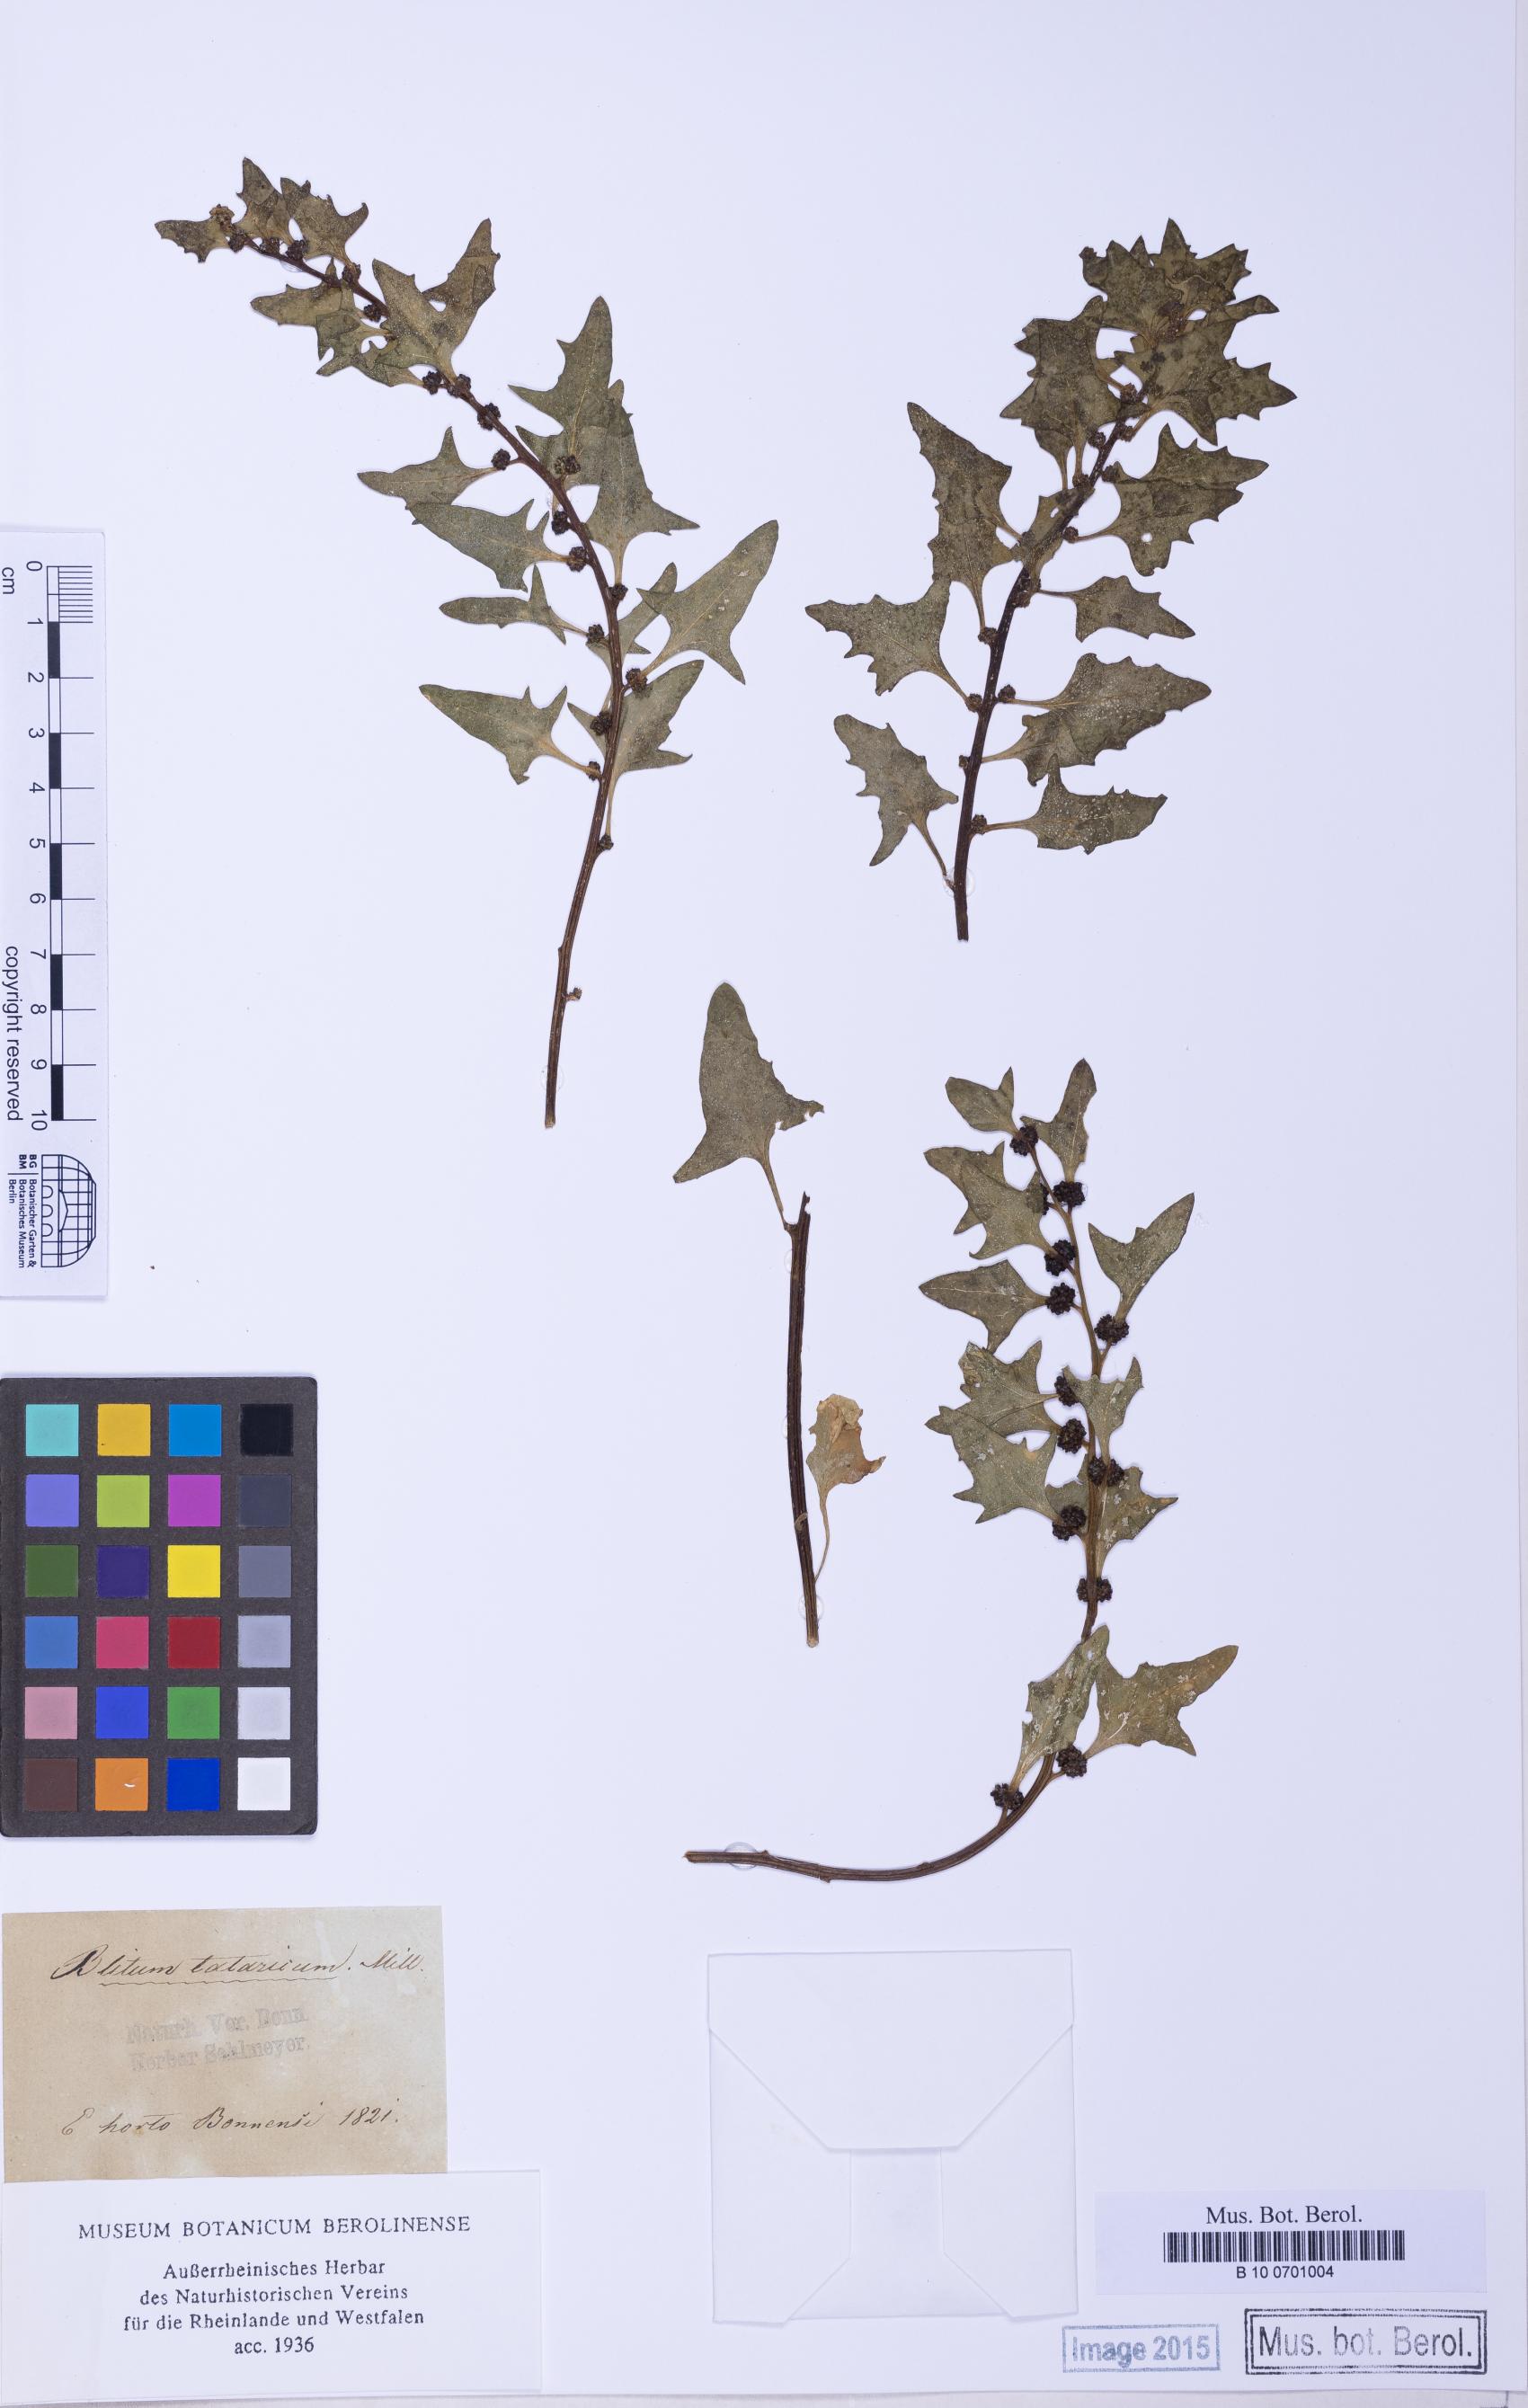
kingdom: Plantae
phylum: Tracheophyta
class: Magnoliopsida
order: Caryophyllales
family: Amaranthaceae
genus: Blitum
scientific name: Blitum petiolare
